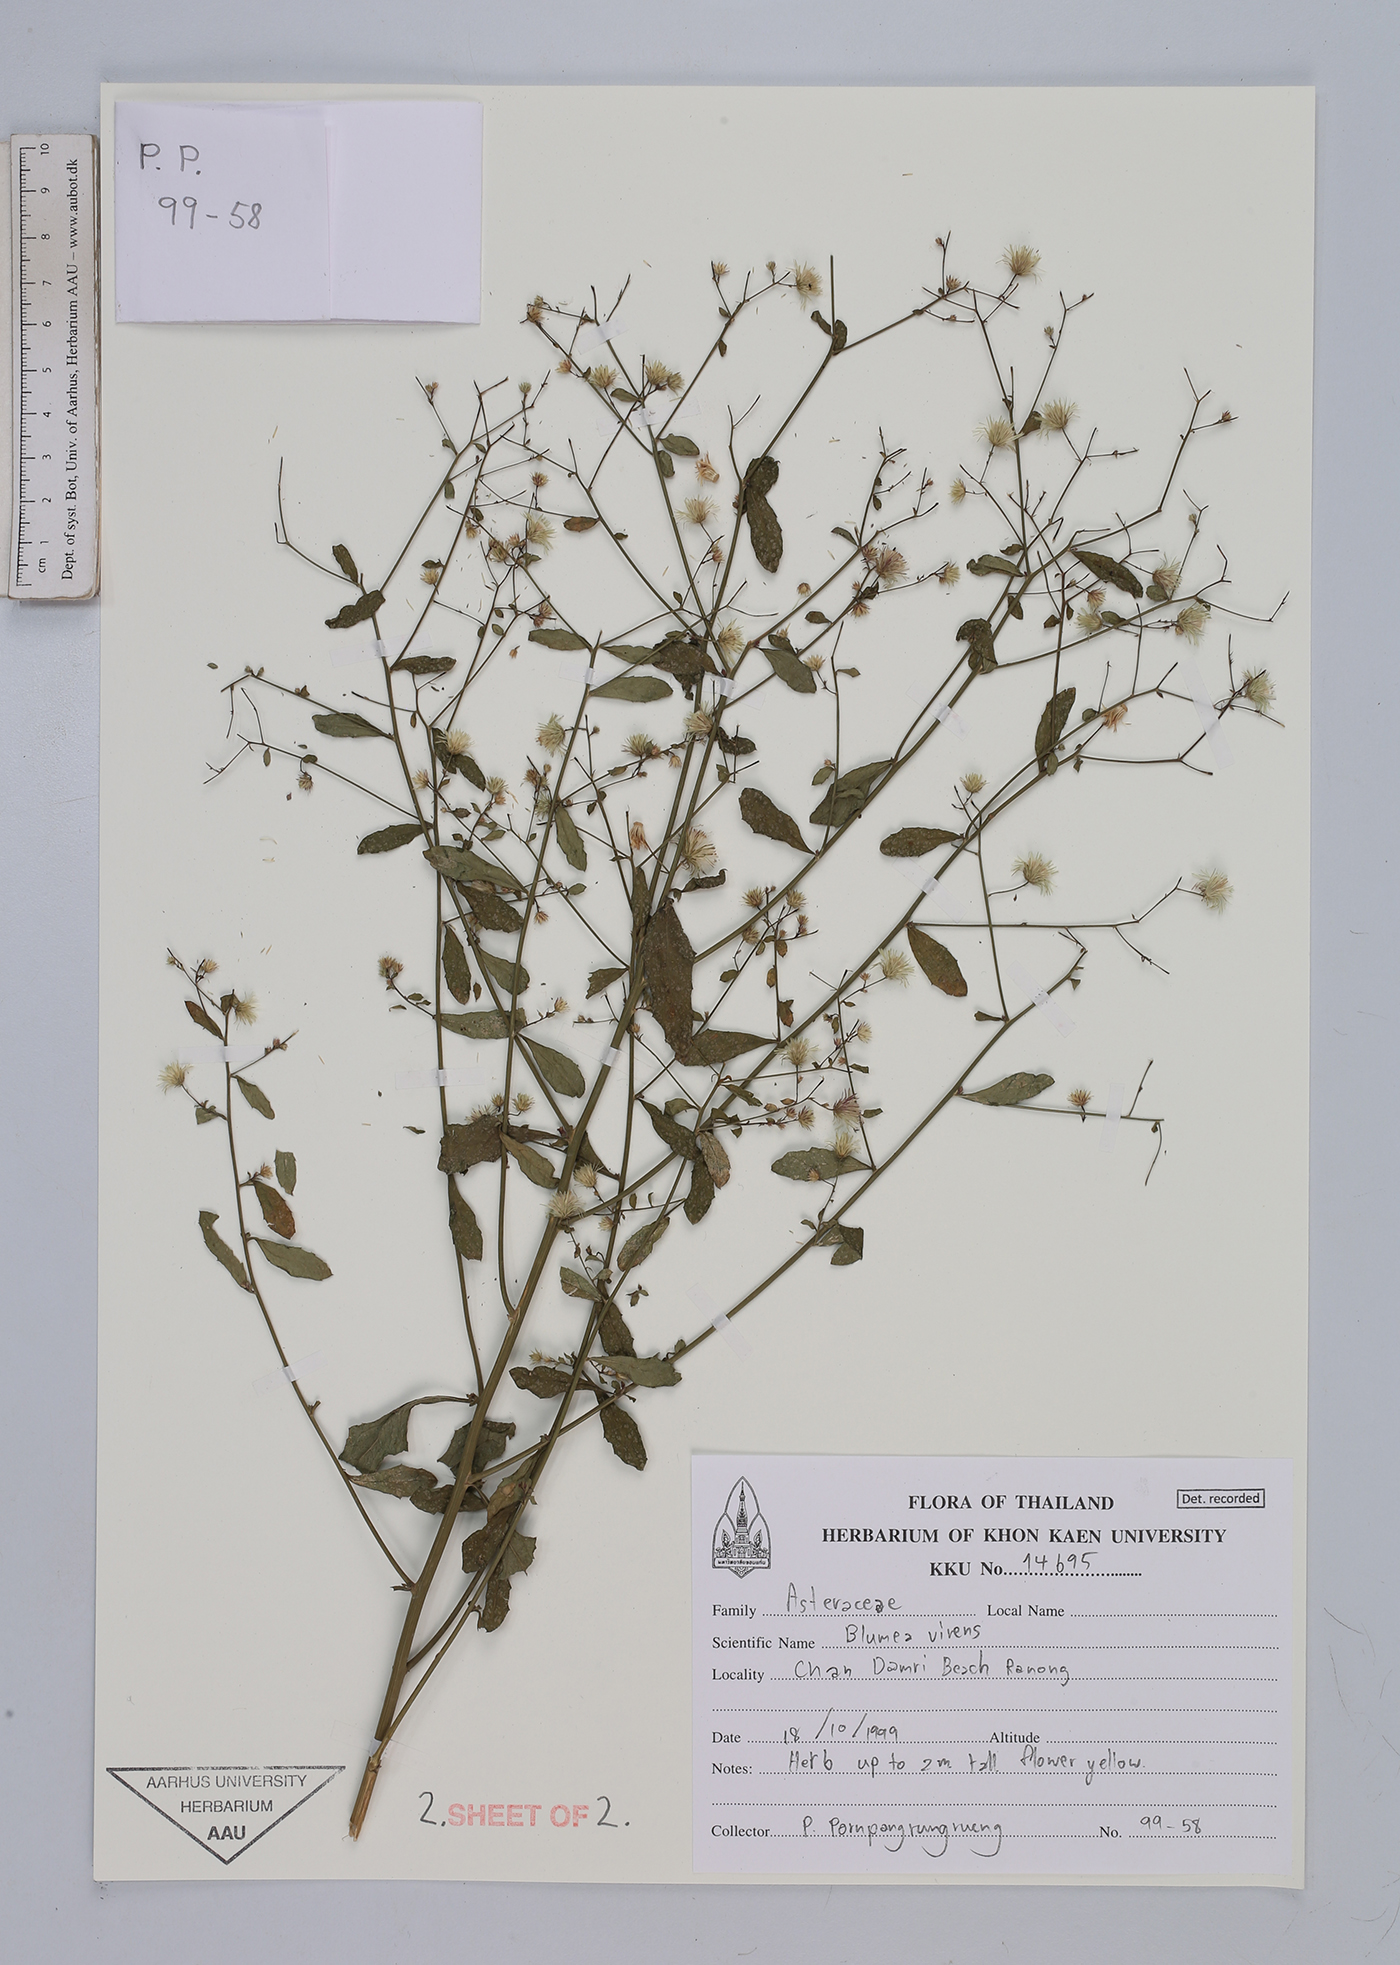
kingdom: Plantae
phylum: Tracheophyta
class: Magnoliopsida
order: Asterales
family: Asteraceae
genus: Blumea
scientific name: Blumea virens
